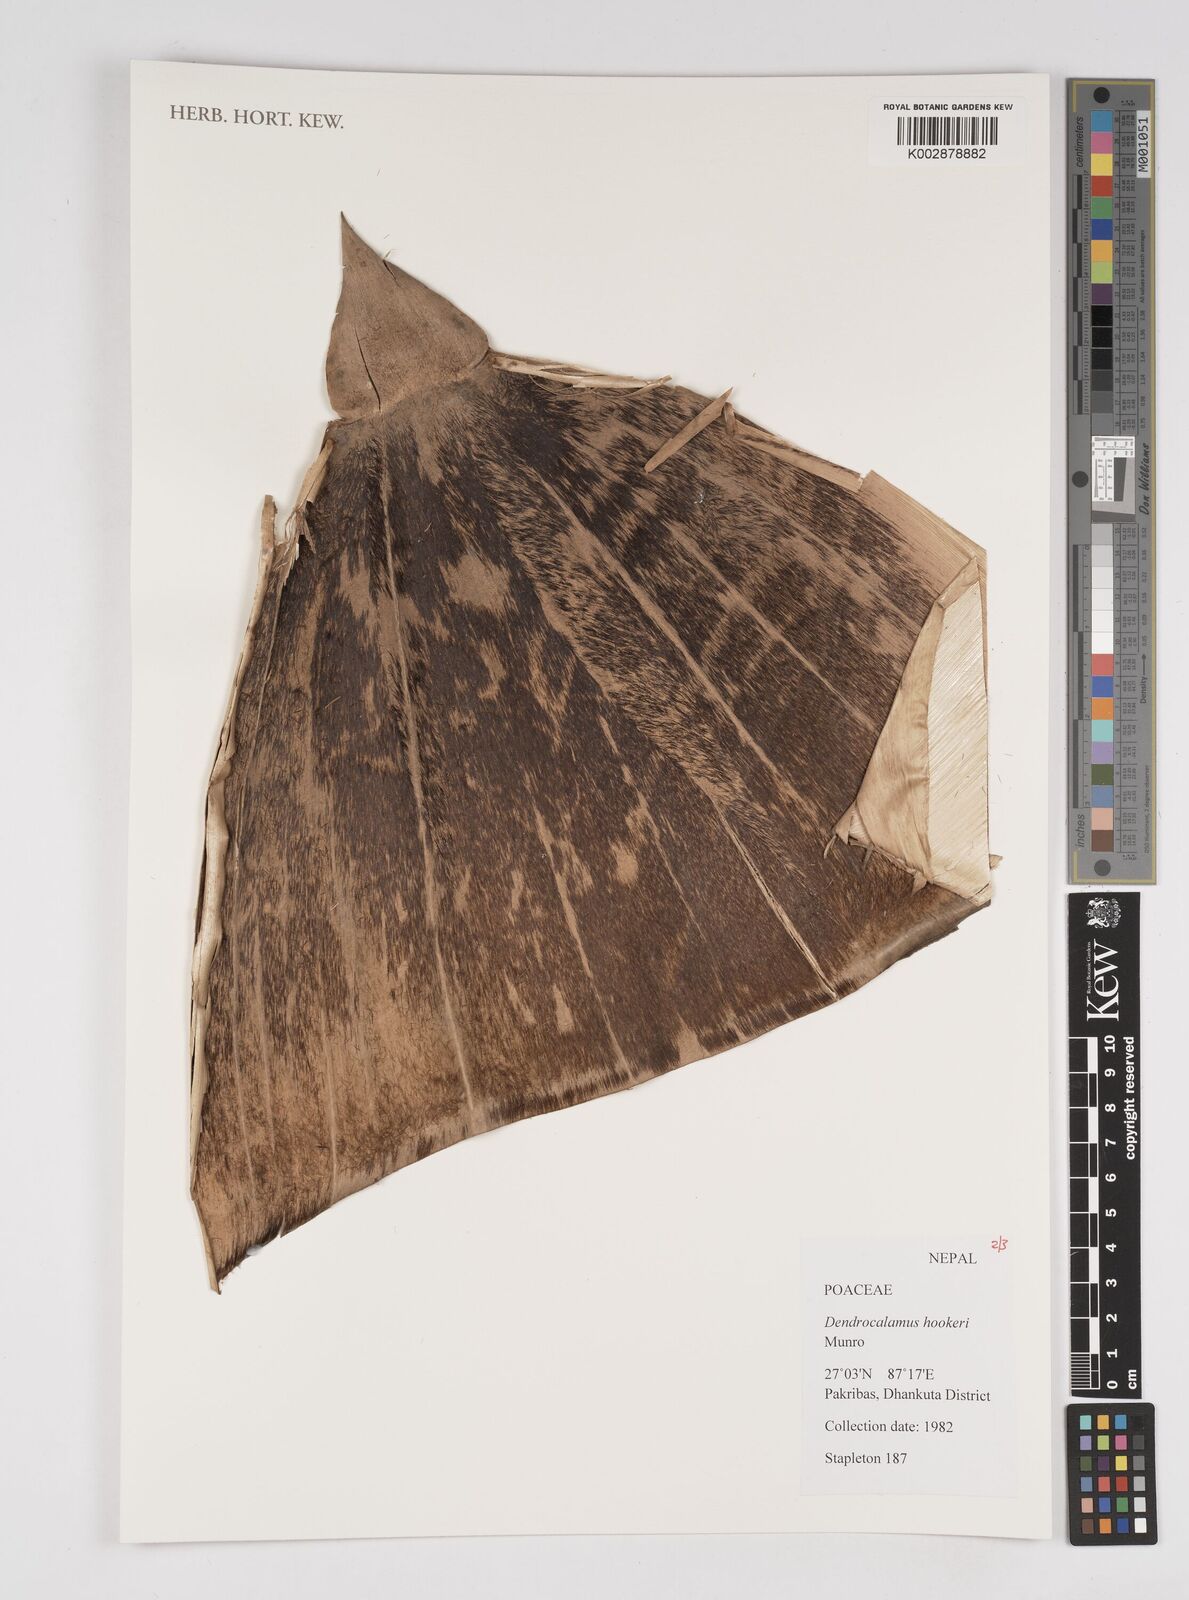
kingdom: Plantae
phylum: Tracheophyta
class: Liliopsida
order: Poales
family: Poaceae
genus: Dendrocalamus
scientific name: Dendrocalamus hookeri
